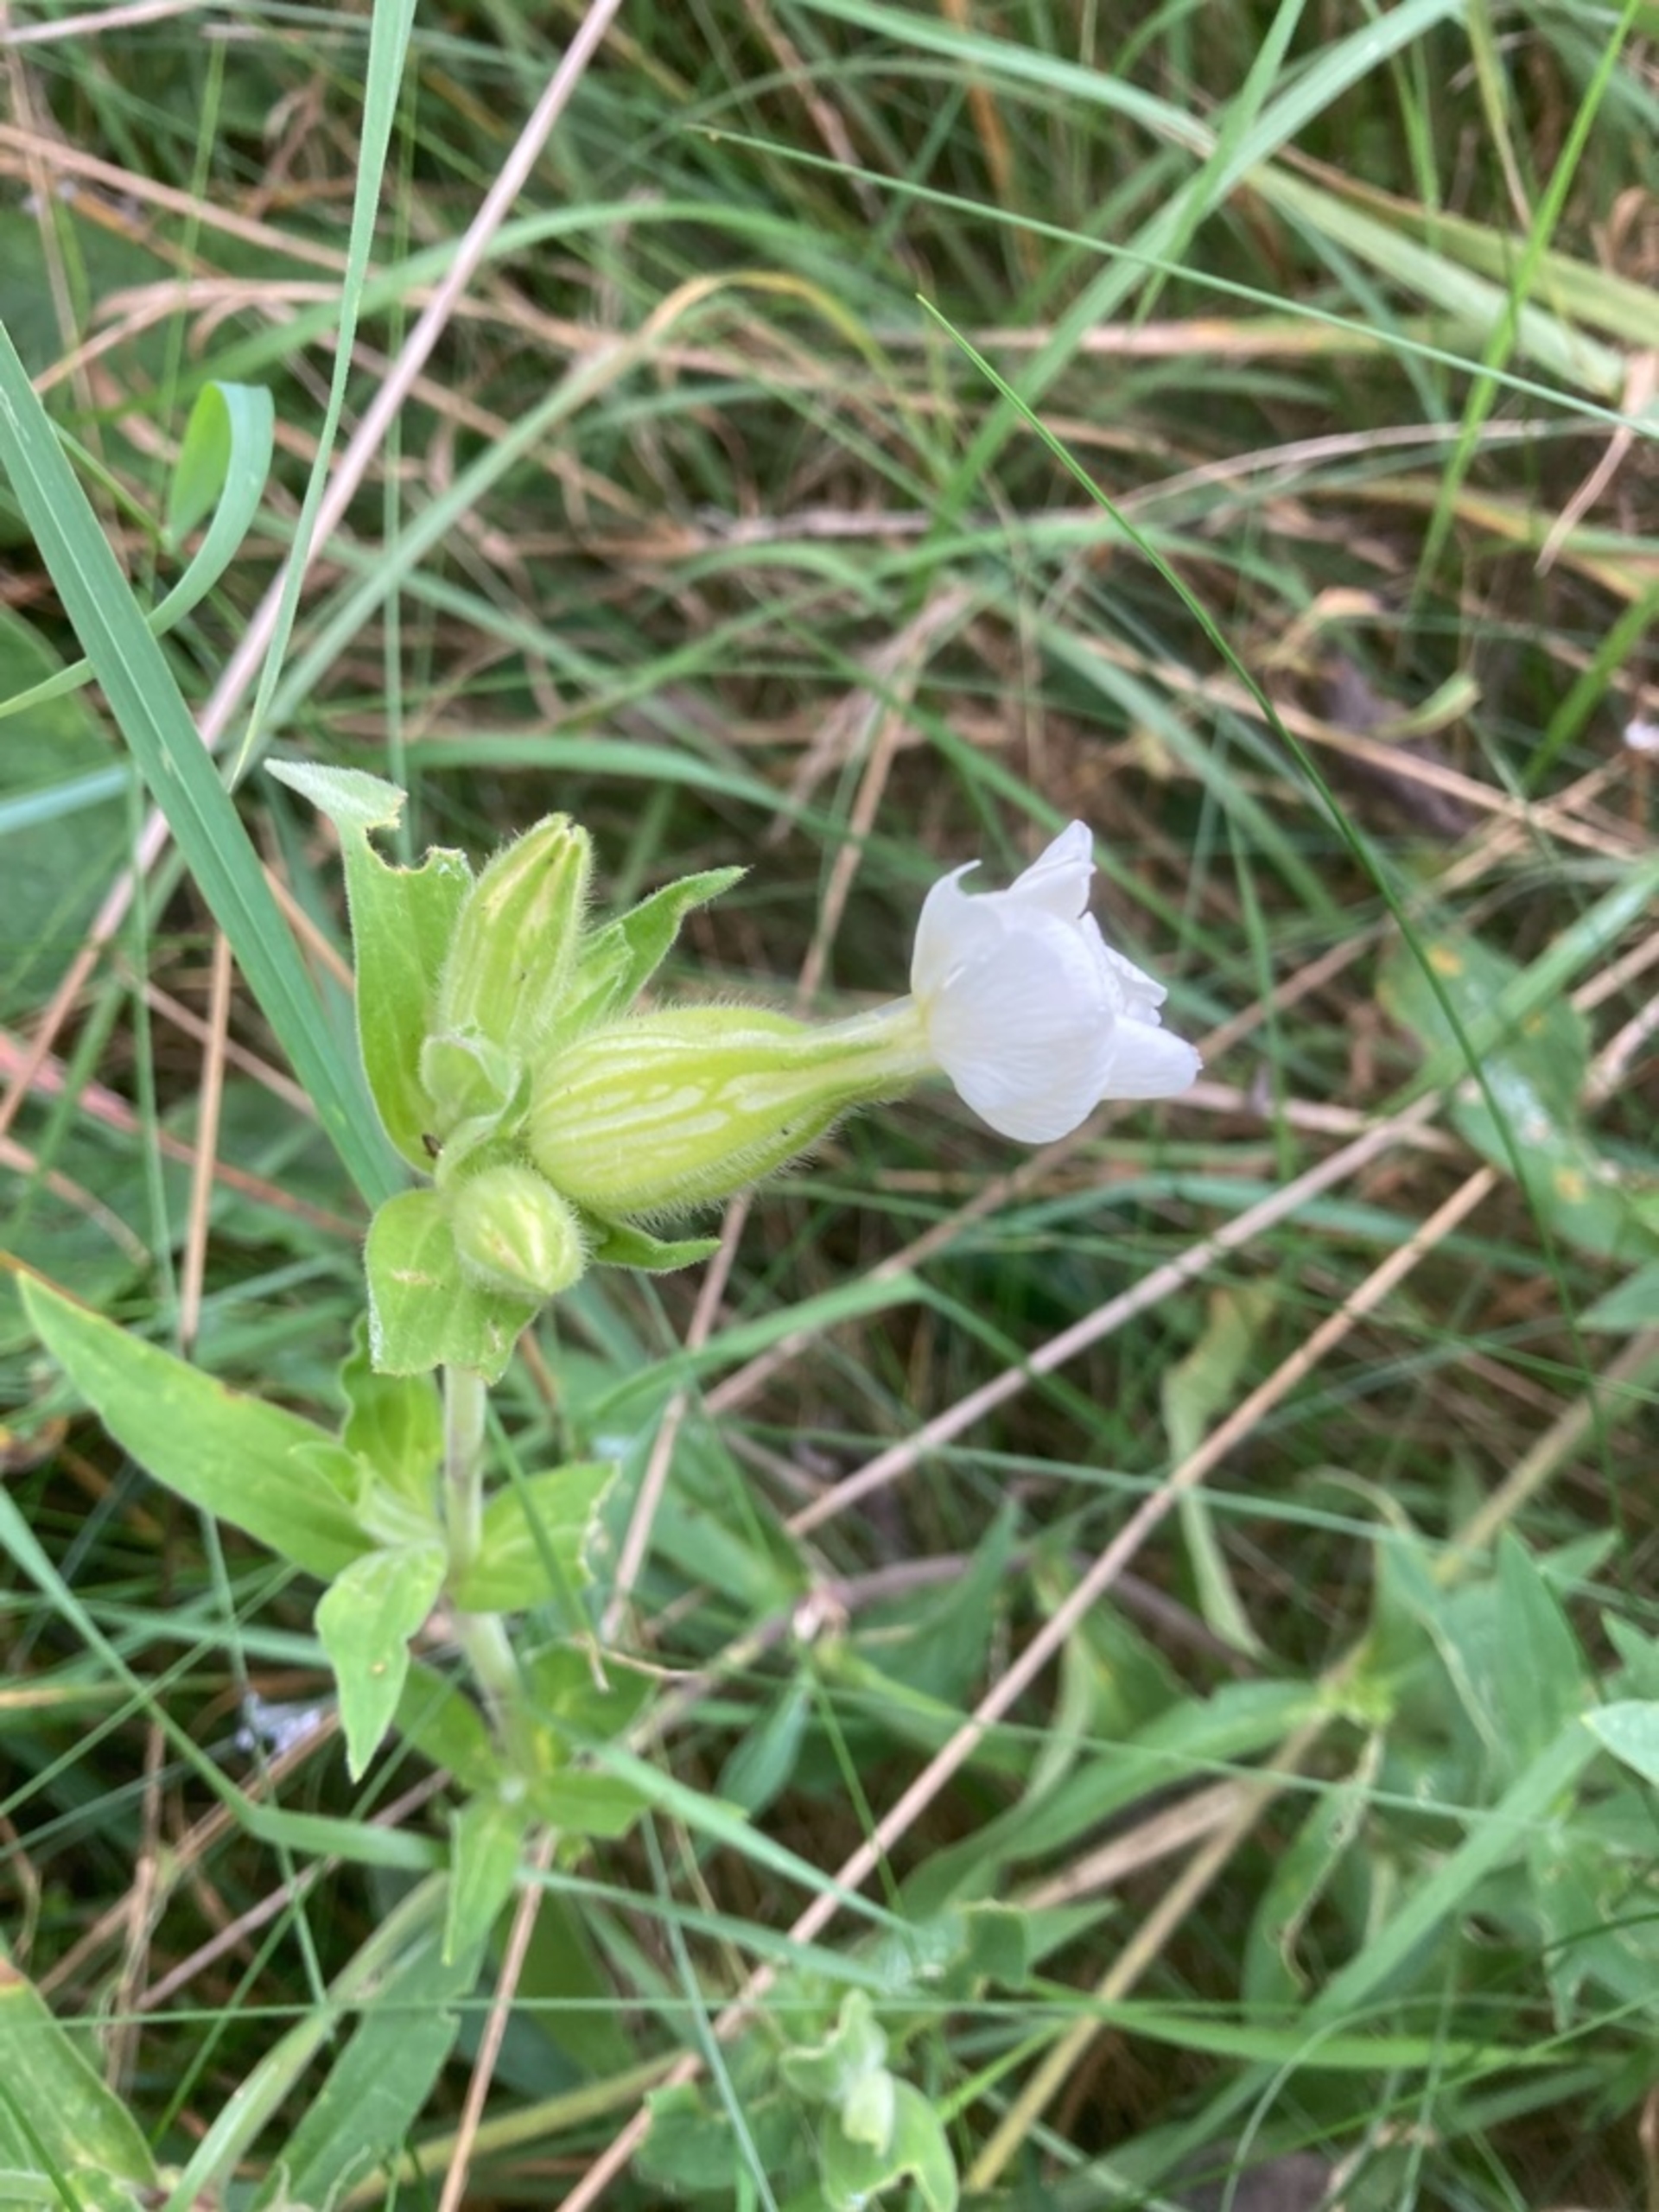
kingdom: Plantae
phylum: Tracheophyta
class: Magnoliopsida
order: Caryophyllales
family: Caryophyllaceae
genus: Silene
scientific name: Silene latifolia
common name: Aftenpragtstjerne
